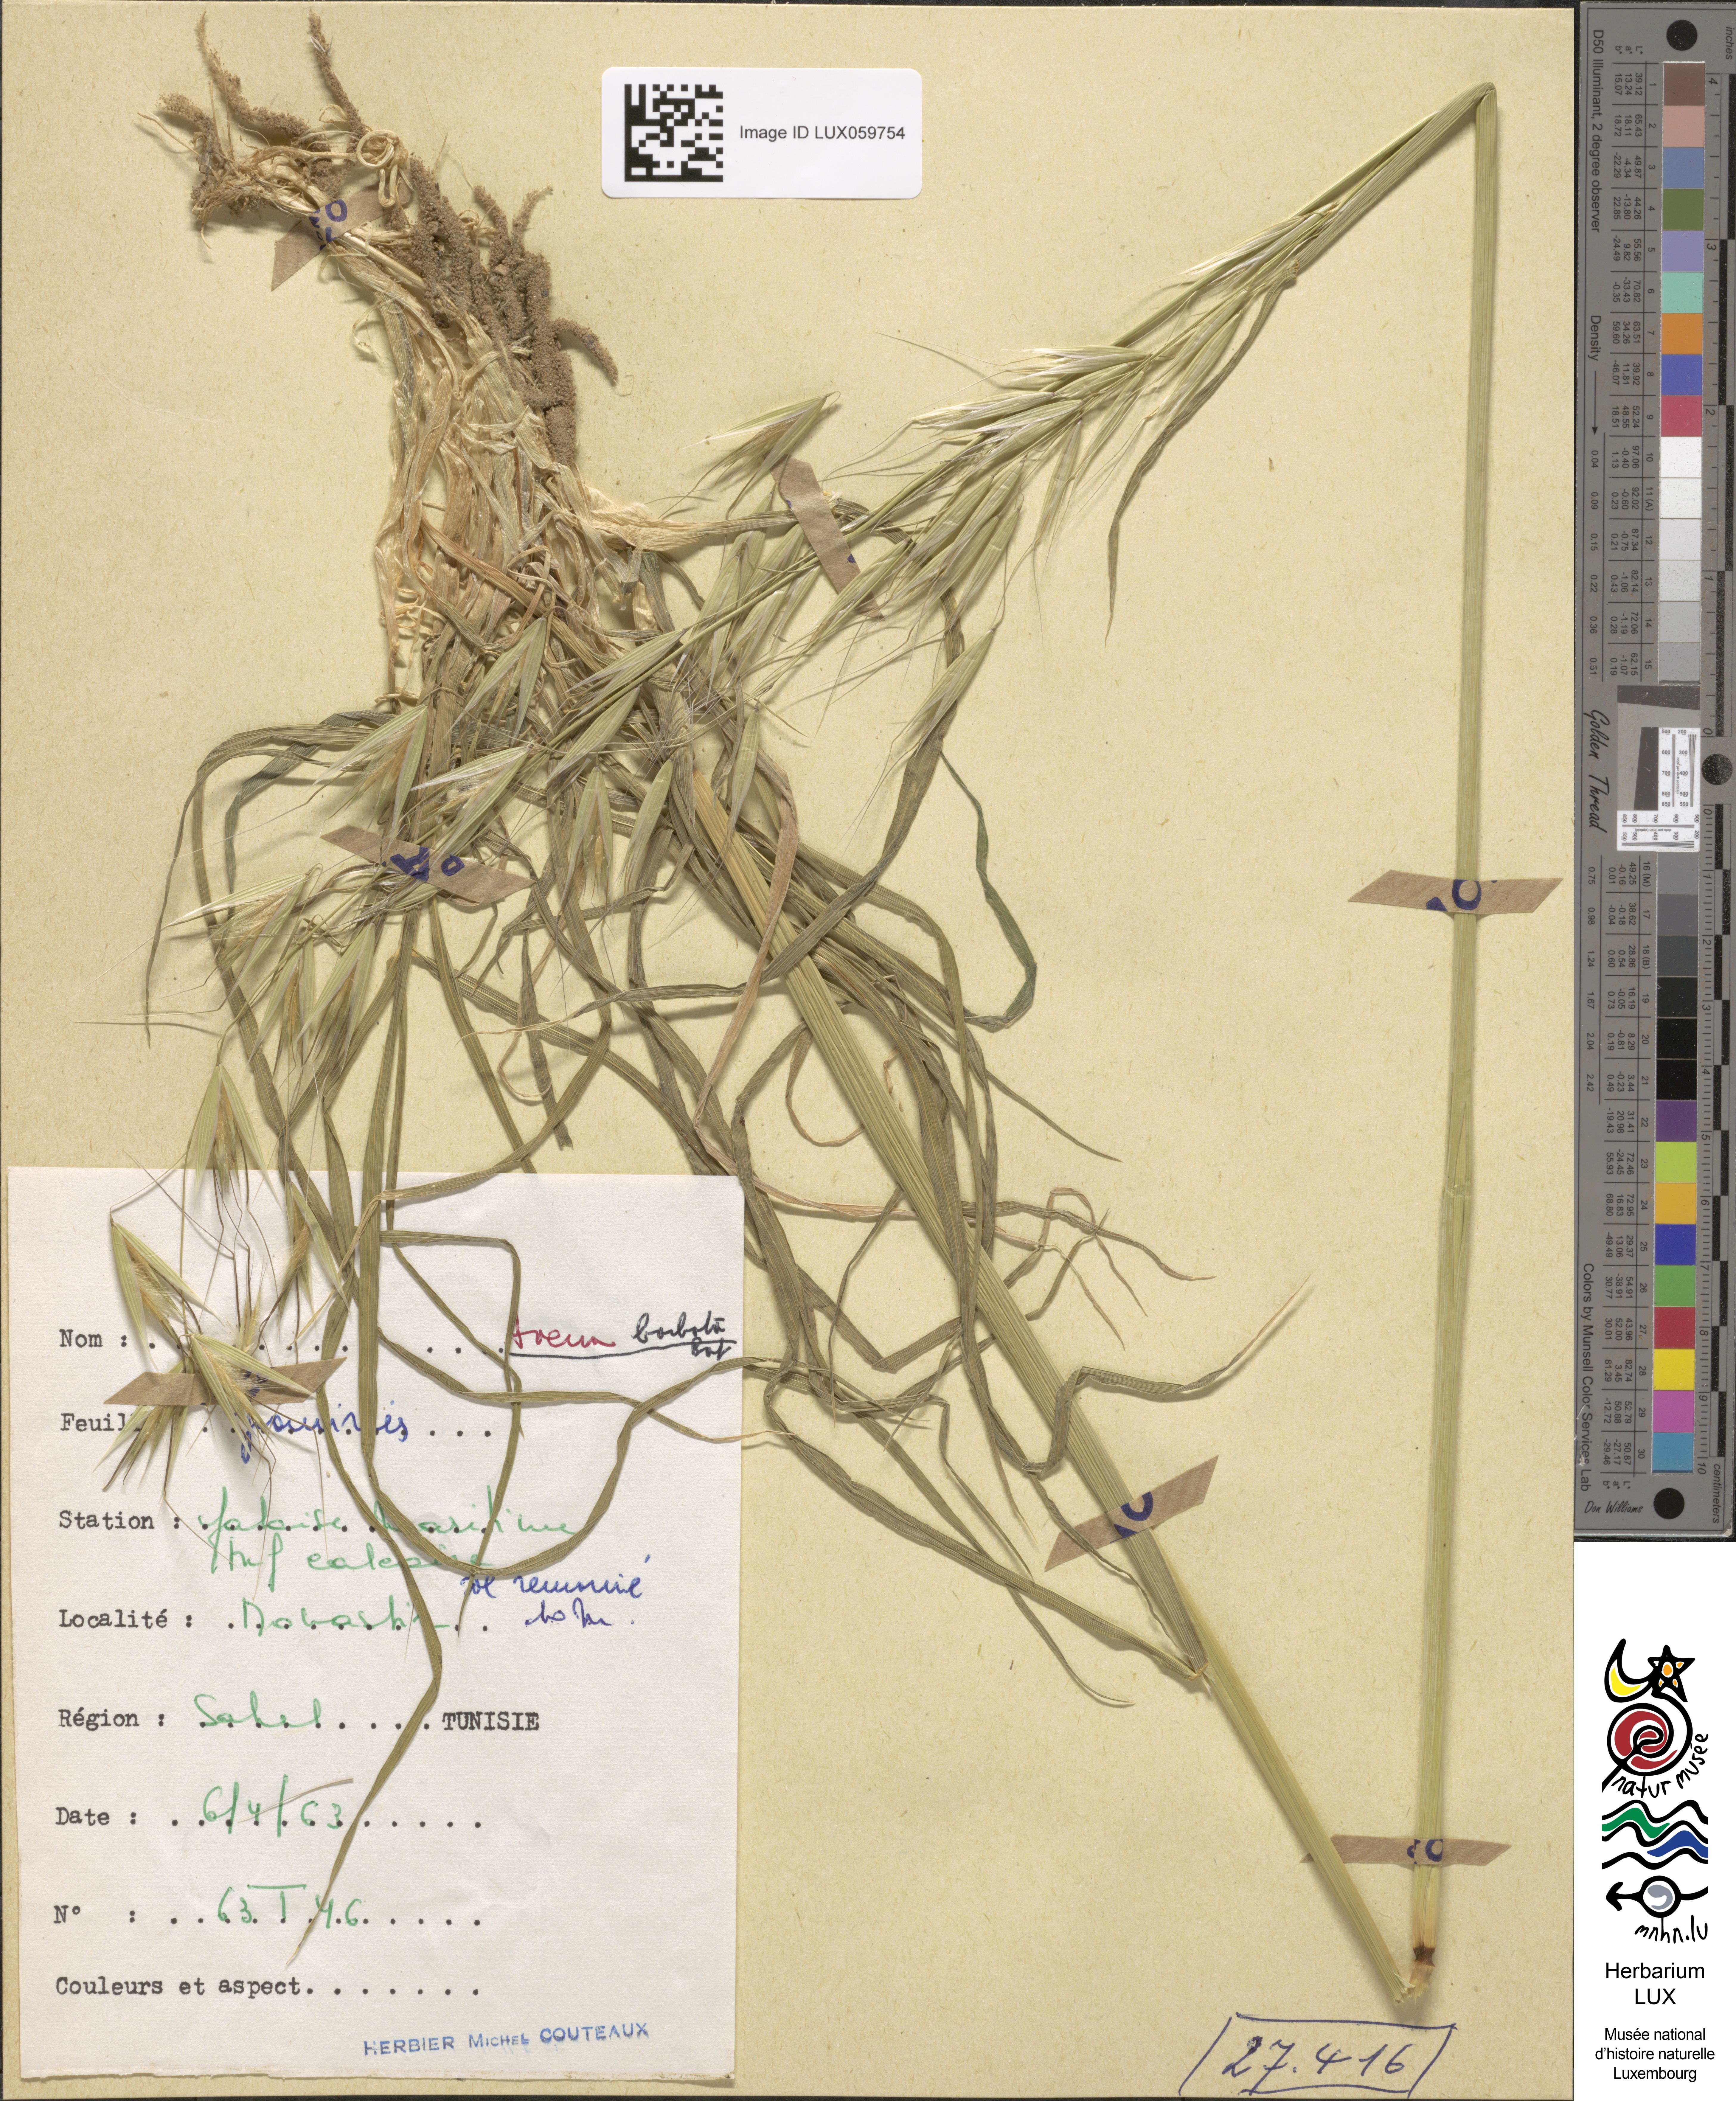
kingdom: Plantae
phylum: Tracheophyta
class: Liliopsida
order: Poales
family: Poaceae
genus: Avena
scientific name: Avena barbata
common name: Slender oat
